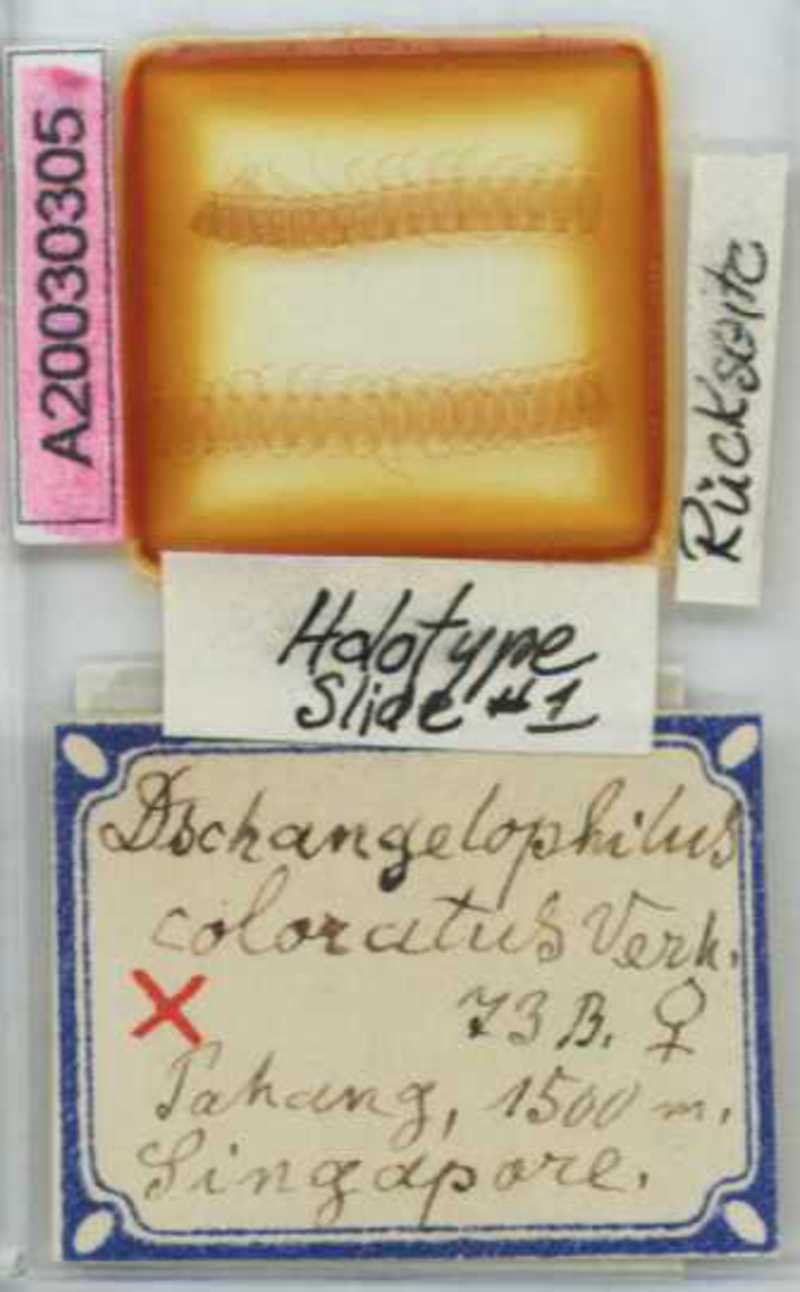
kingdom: Animalia
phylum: Arthropoda
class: Chilopoda
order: Geophilomorpha
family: Gonibregmatidae
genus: Himantosoma
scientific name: Himantosoma typicum
